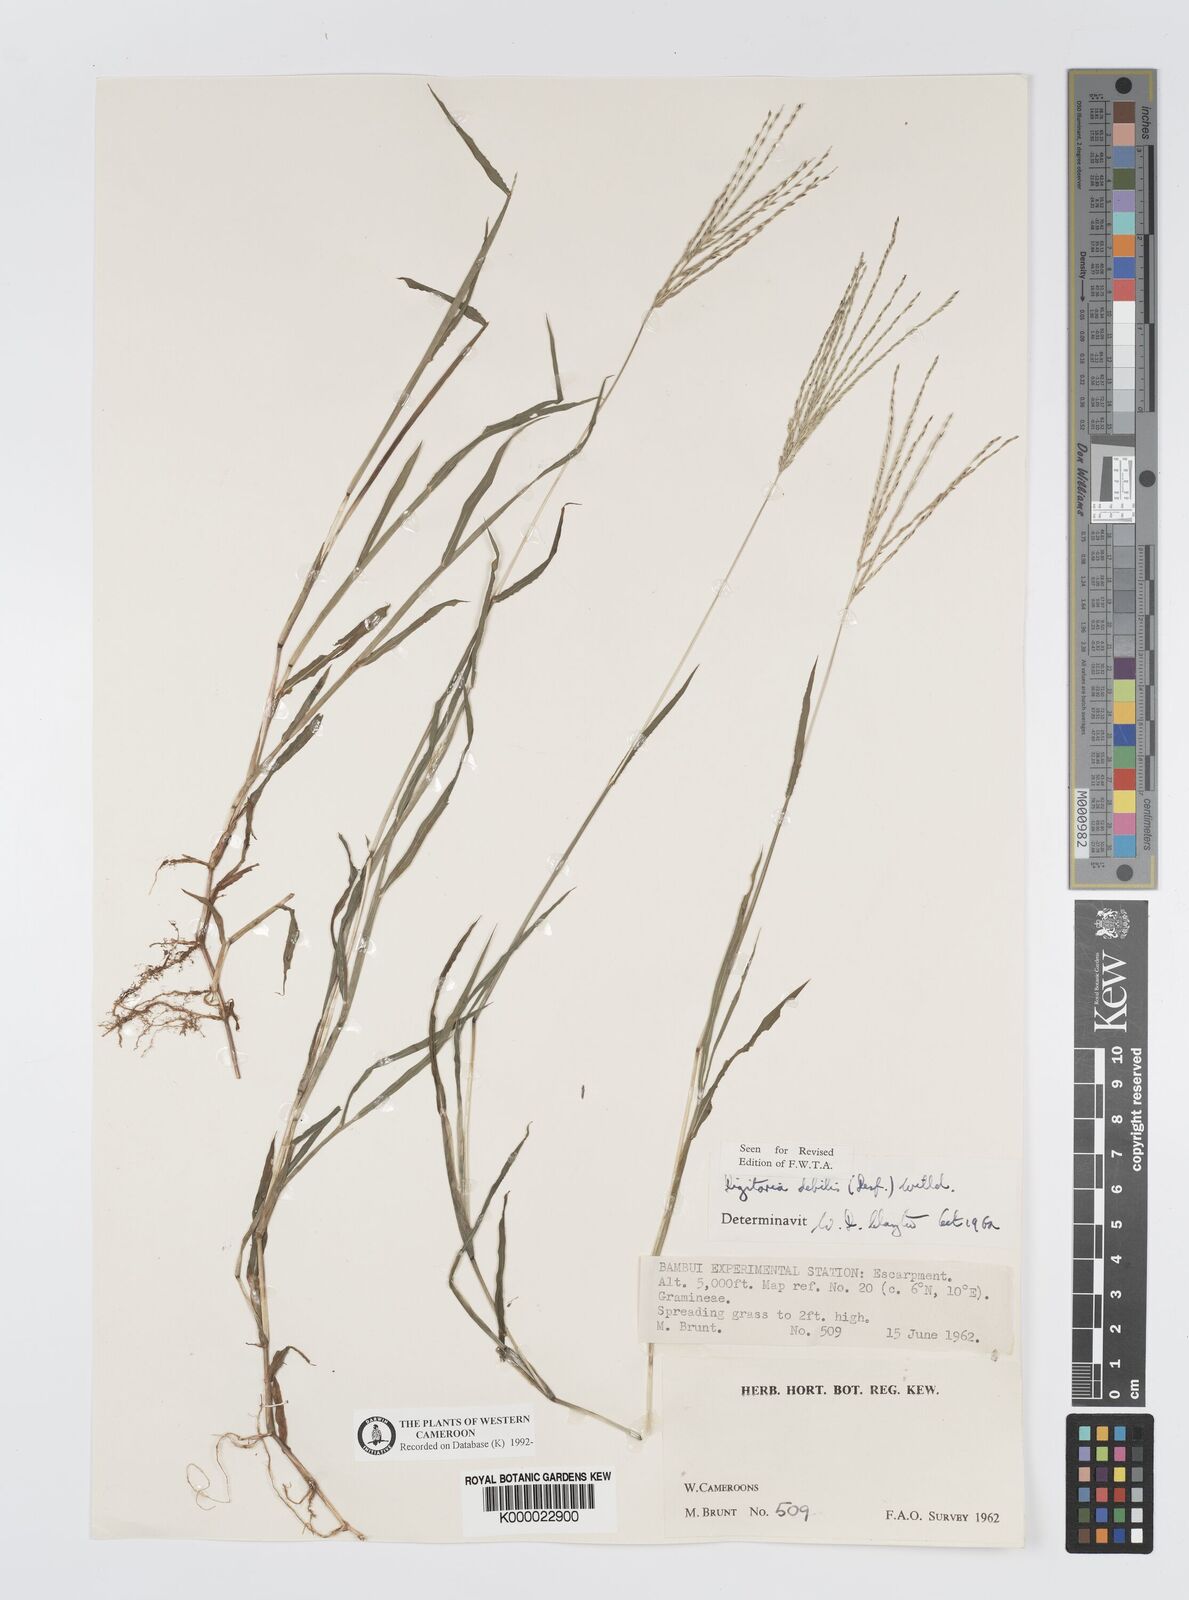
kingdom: Plantae
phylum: Tracheophyta
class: Liliopsida
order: Poales
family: Poaceae
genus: Digitaria
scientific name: Digitaria debilis
